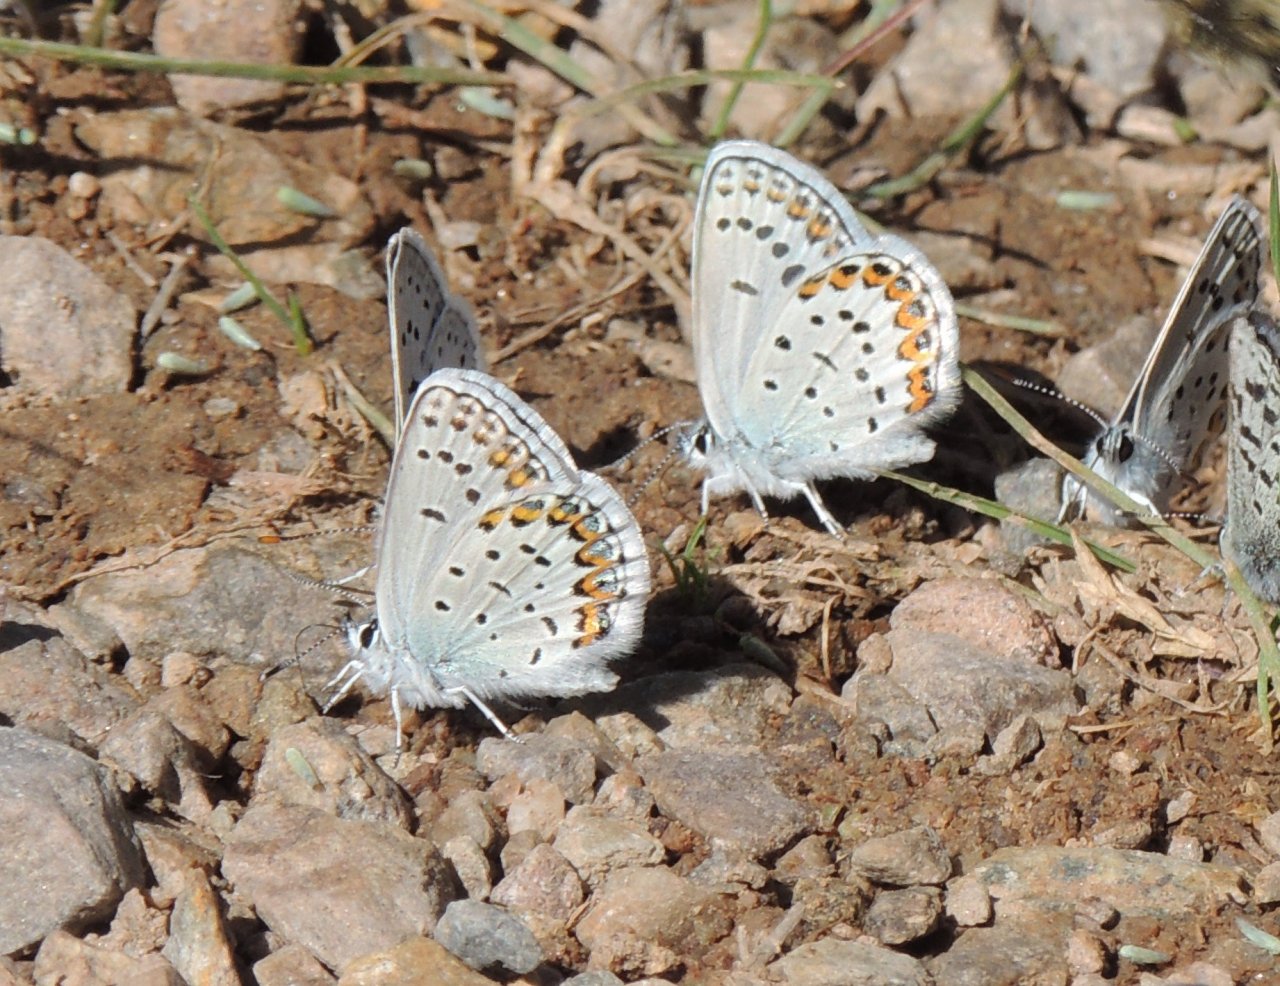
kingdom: Animalia
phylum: Arthropoda
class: Insecta
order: Lepidoptera
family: Lycaenidae
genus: Lycaeides
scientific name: Lycaeides melissa
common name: Melissa Blue
